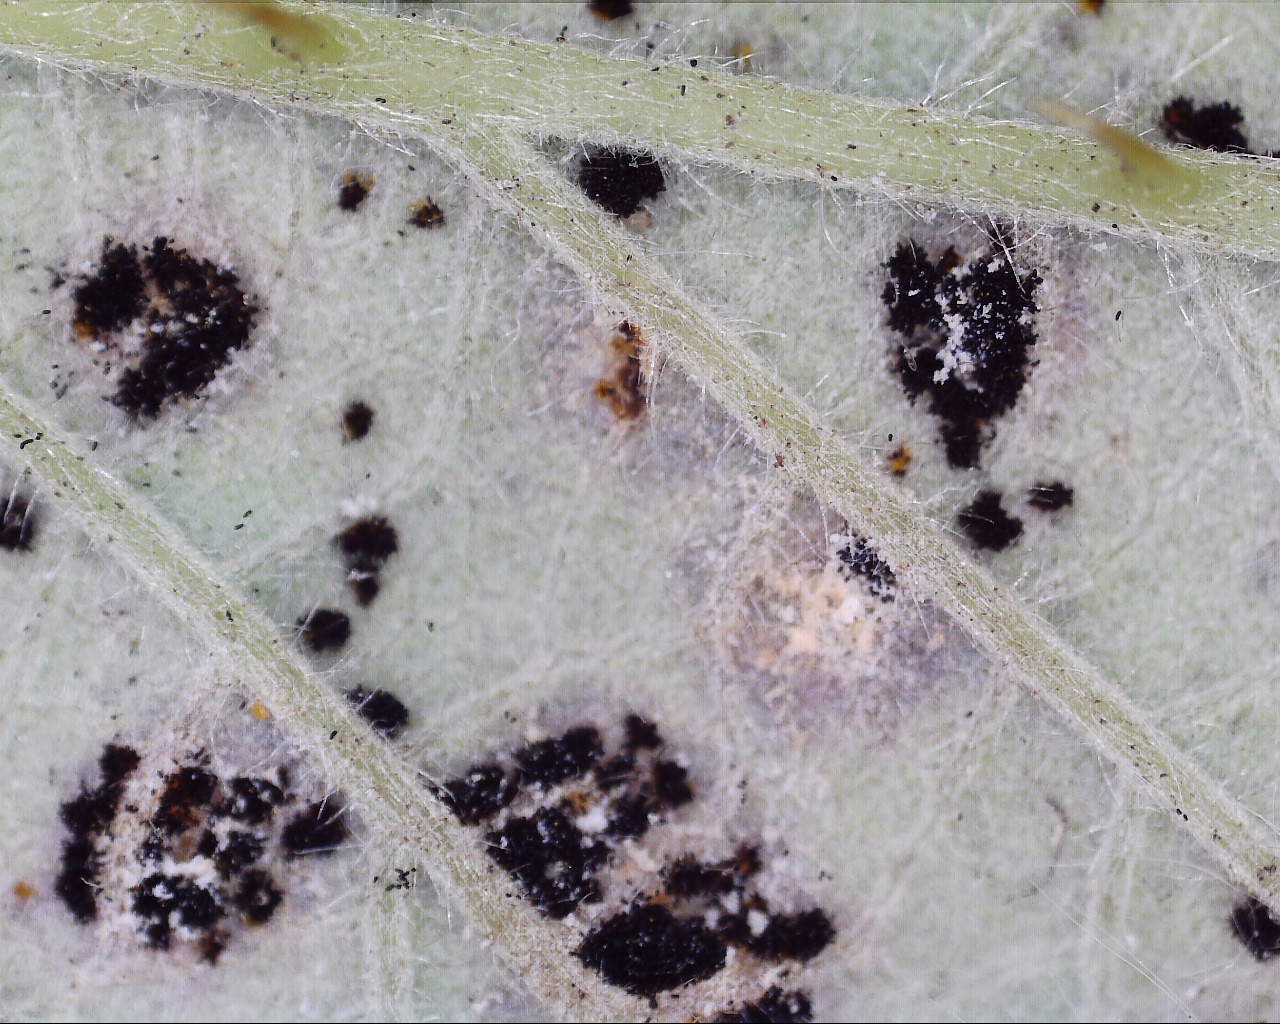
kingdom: Fungi
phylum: Basidiomycota
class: Pucciniomycetes
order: Pucciniales
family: Phragmidiaceae
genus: Phragmidium
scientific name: Phragmidium violaceum
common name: violet flercellerust
